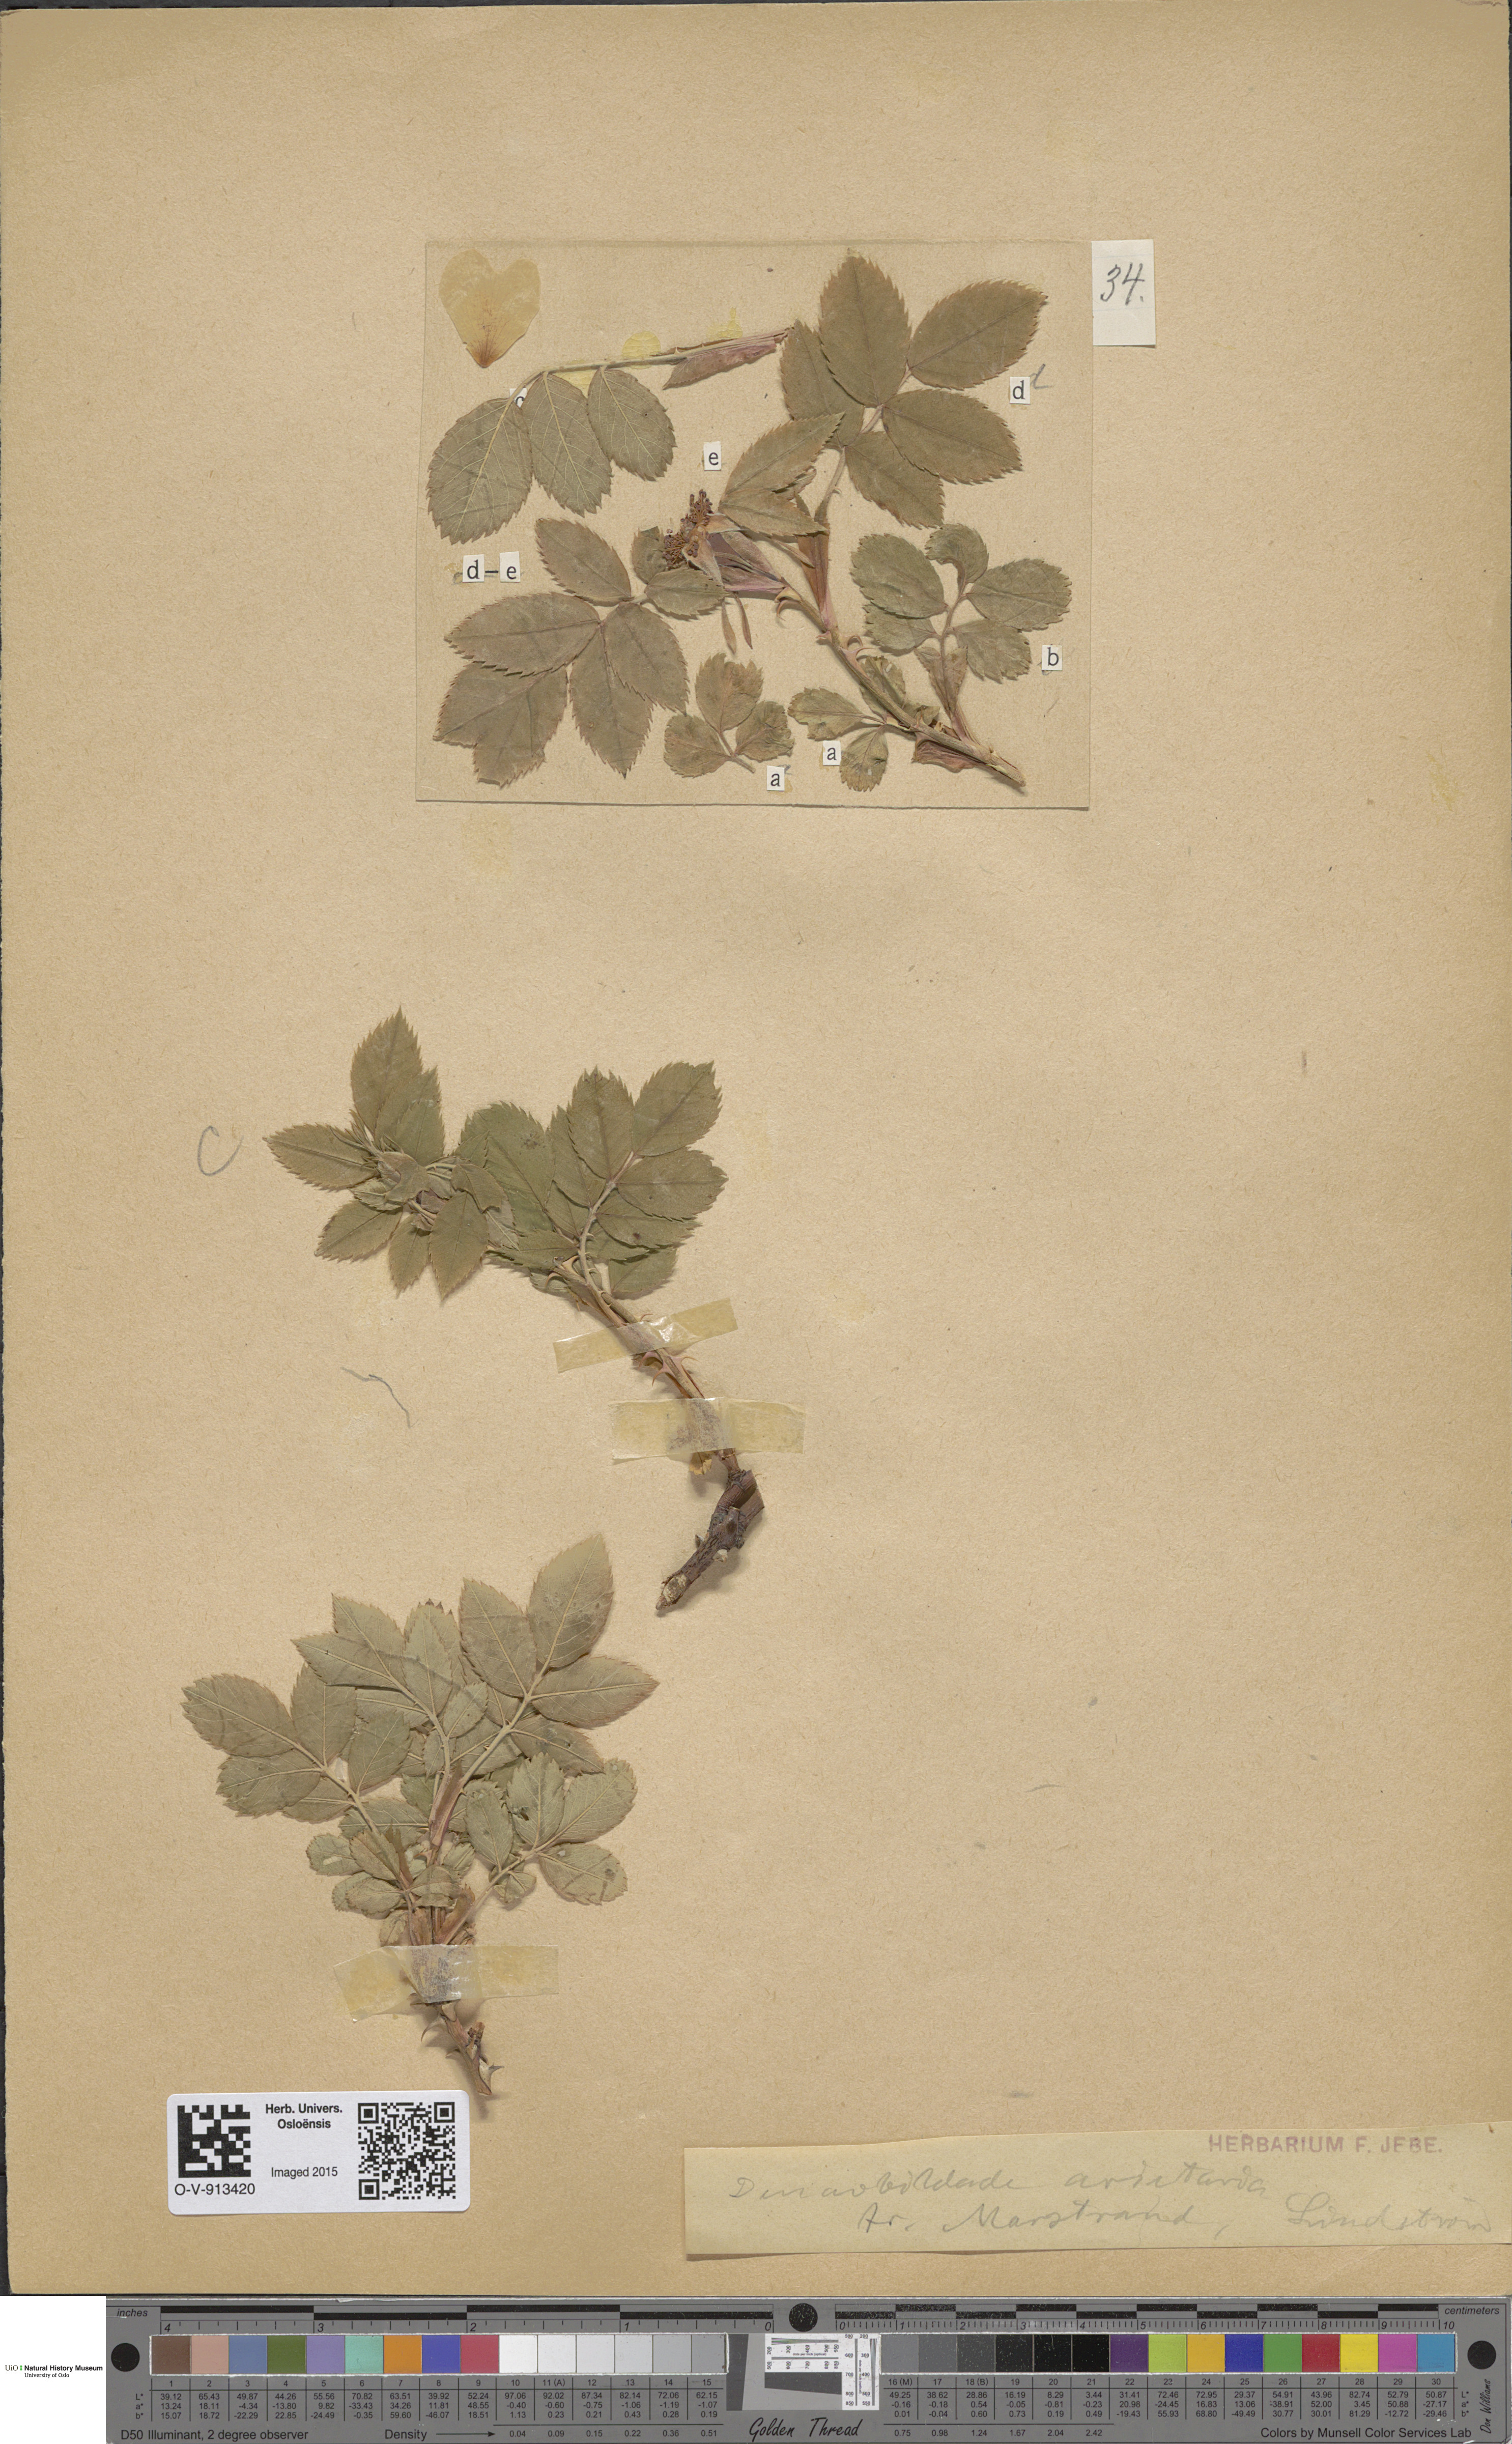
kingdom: Plantae
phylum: Tracheophyta
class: Magnoliopsida
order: Rosales
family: Rosaceae
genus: Rosa
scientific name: Rosa
